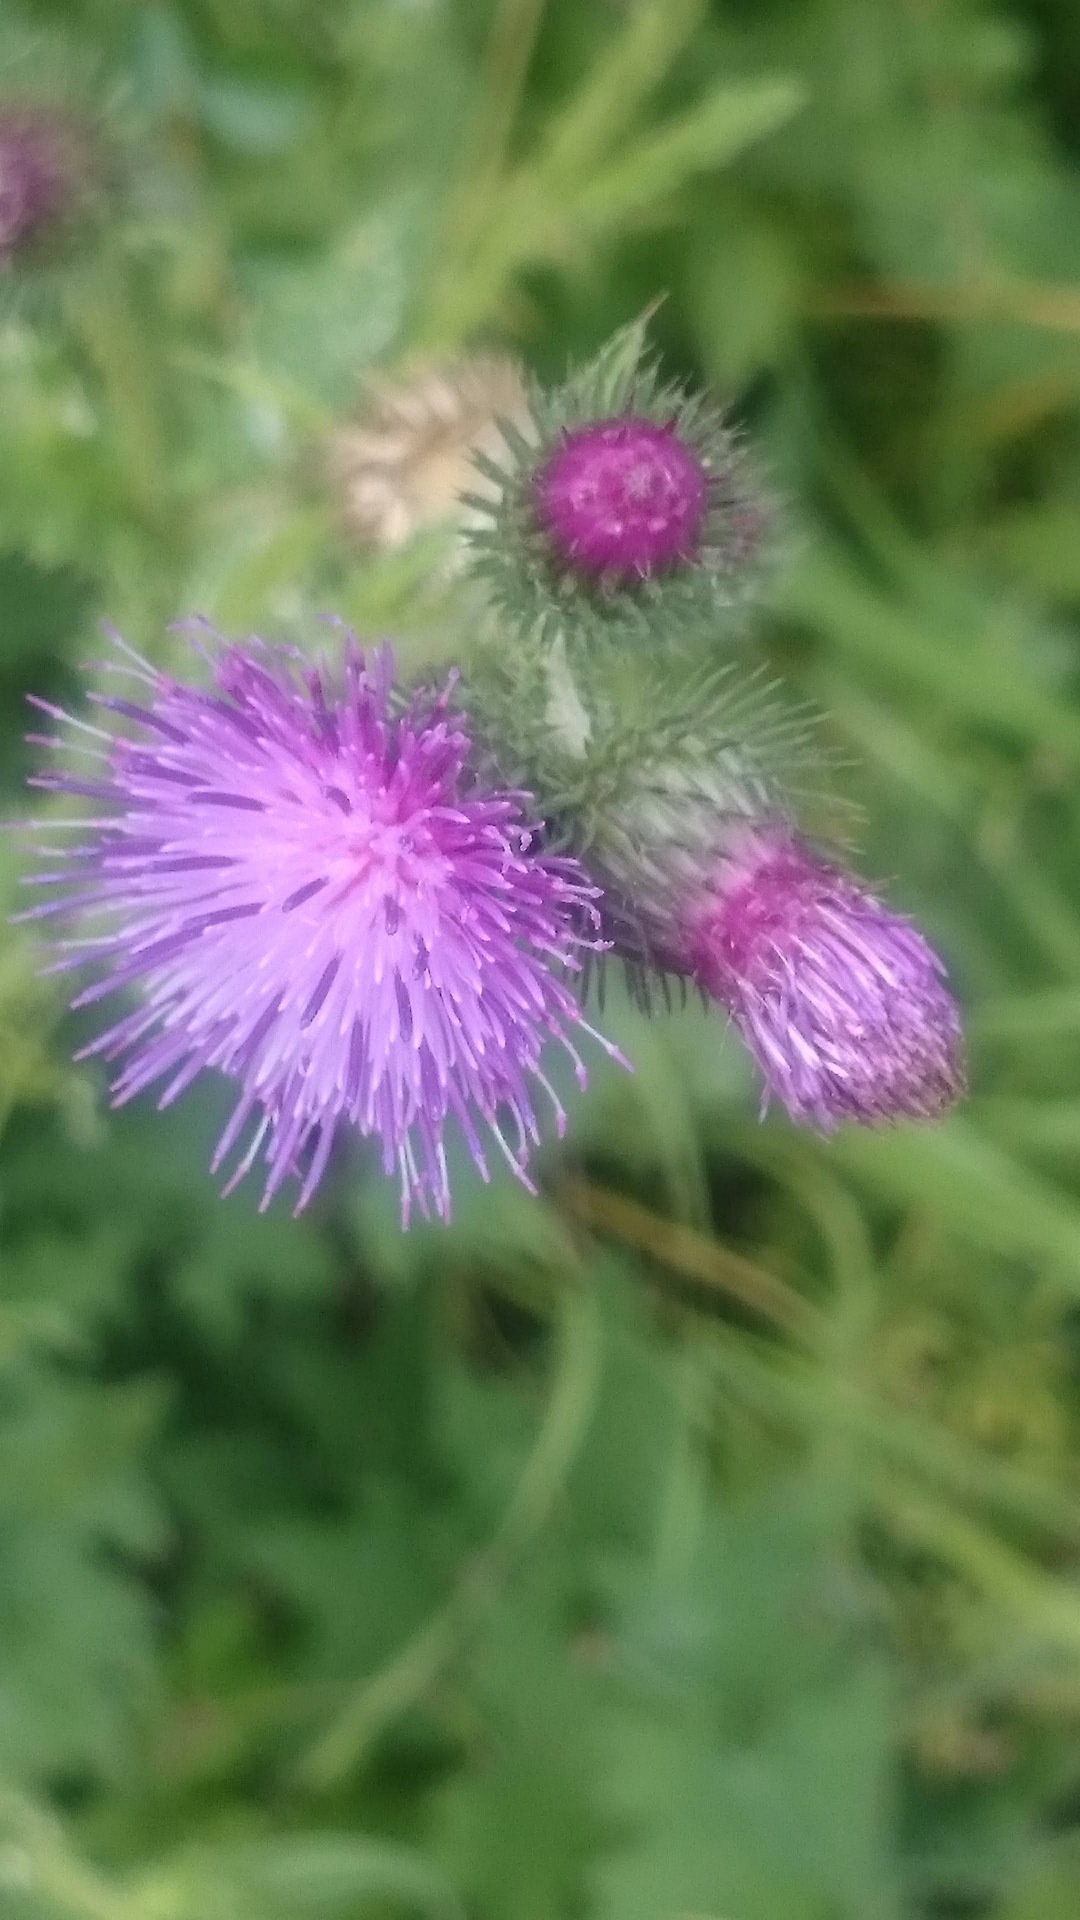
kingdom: Plantae
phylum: Tracheophyta
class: Magnoliopsida
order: Asterales
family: Asteraceae
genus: Carduus
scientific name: Carduus crispus
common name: Kruset tidsel
